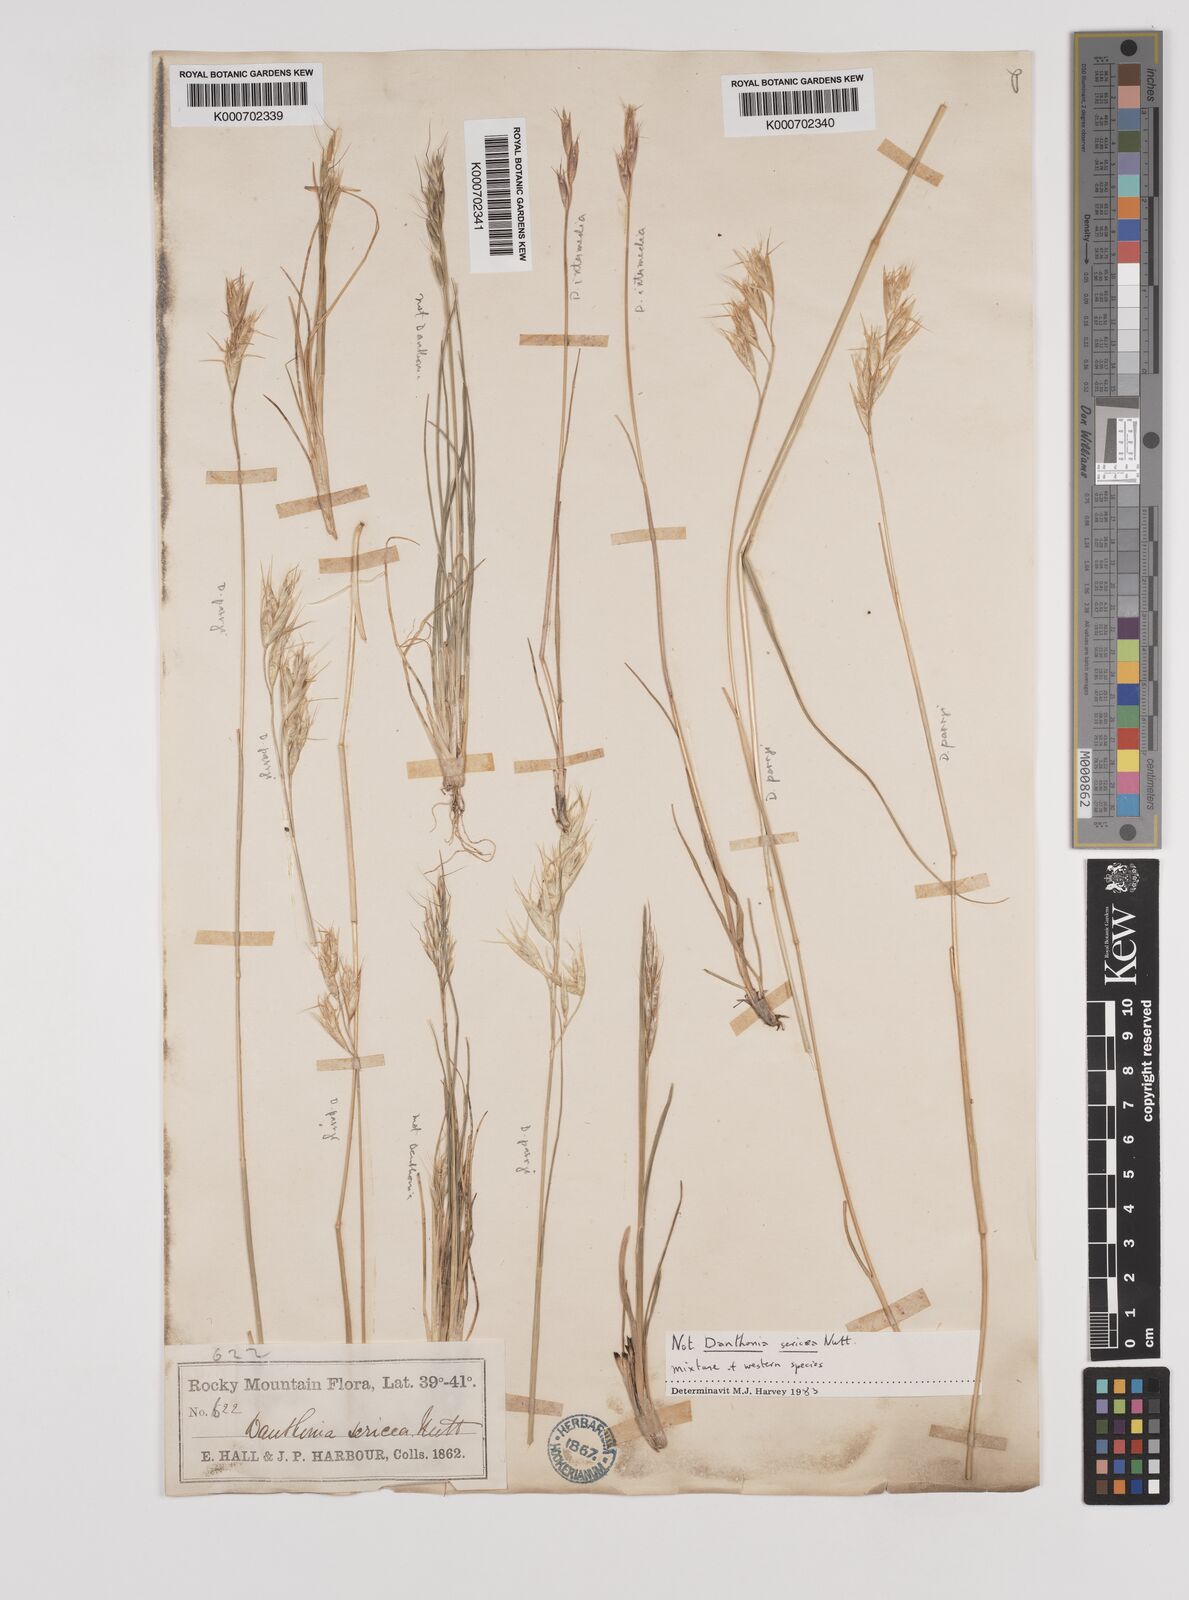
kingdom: Plantae
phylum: Tracheophyta
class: Liliopsida
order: Poales
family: Poaceae
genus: Danthonia
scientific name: Danthonia parryi
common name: Parry's oat grass
